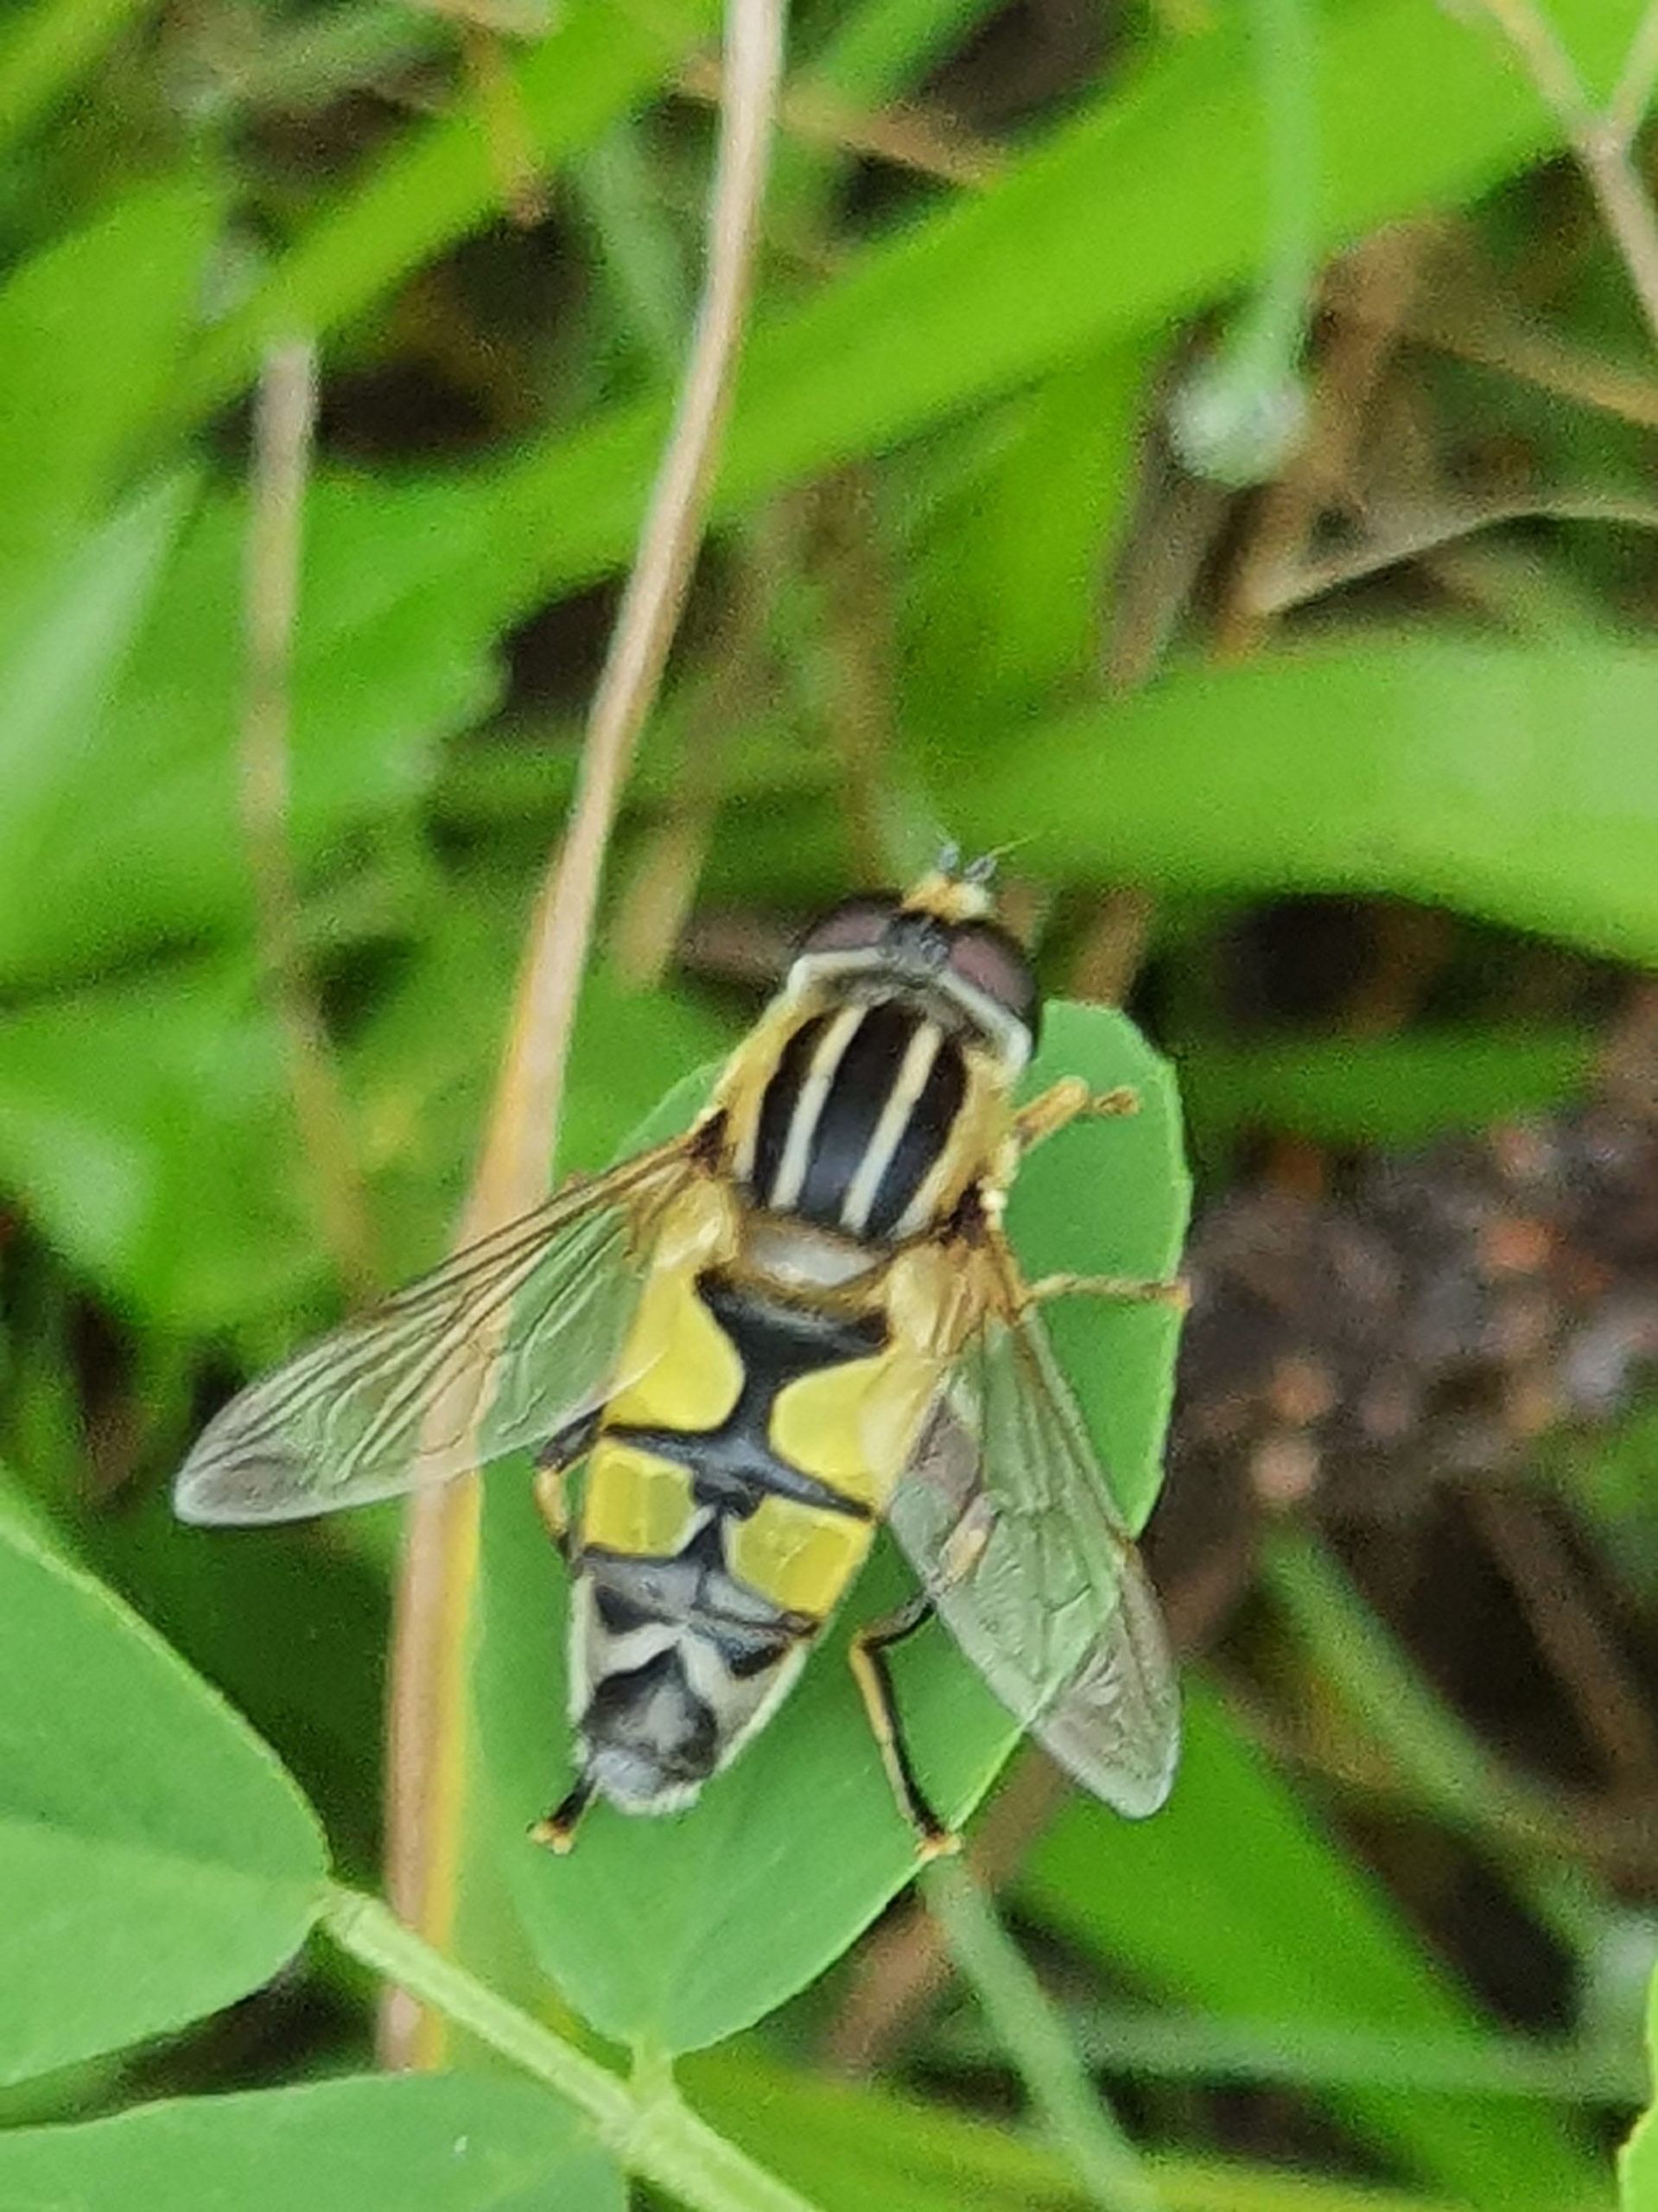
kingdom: Animalia
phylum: Arthropoda
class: Insecta
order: Diptera
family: Syrphidae
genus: Helophilus
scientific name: Helophilus trivittatus
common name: Trebåndet sumpsvirreflue
